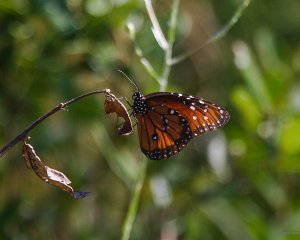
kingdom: Animalia
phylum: Arthropoda
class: Insecta
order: Lepidoptera
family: Nymphalidae
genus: Limenitis
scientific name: Limenitis archippus
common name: Viceroy
